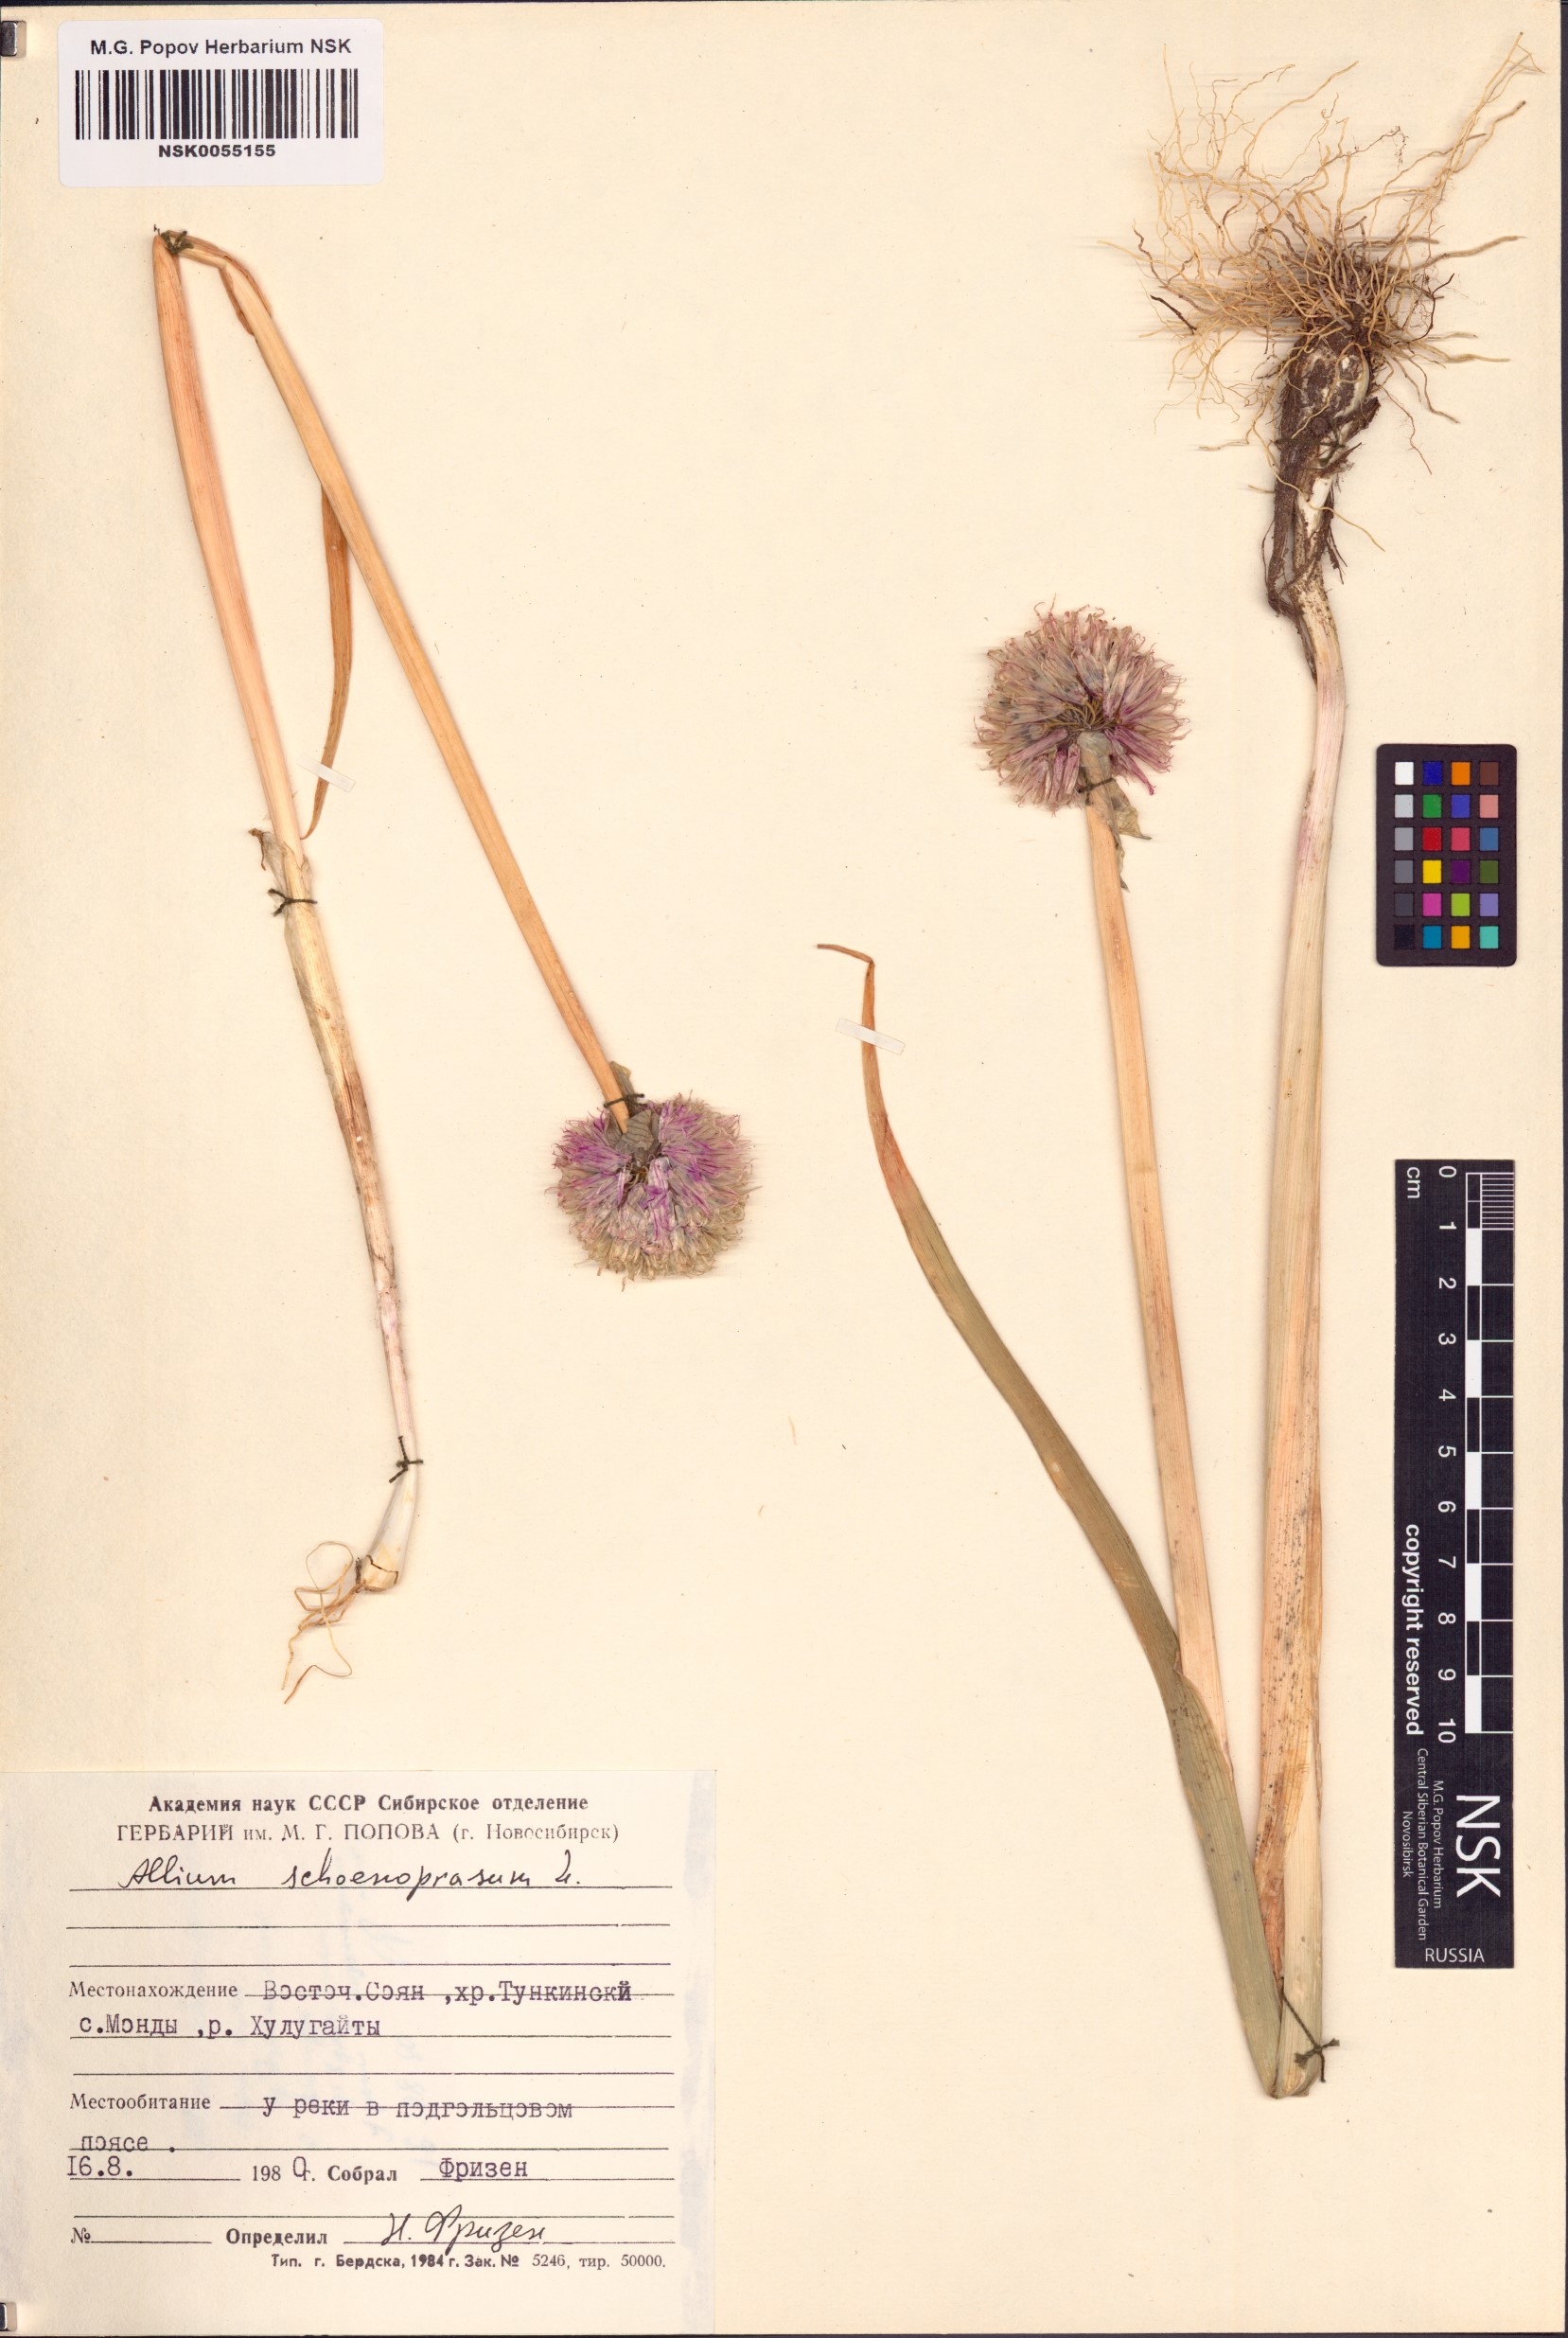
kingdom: Plantae
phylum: Tracheophyta
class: Liliopsida
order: Asparagales
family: Amaryllidaceae
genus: Allium
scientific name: Allium schoenoprasum
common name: Chives
